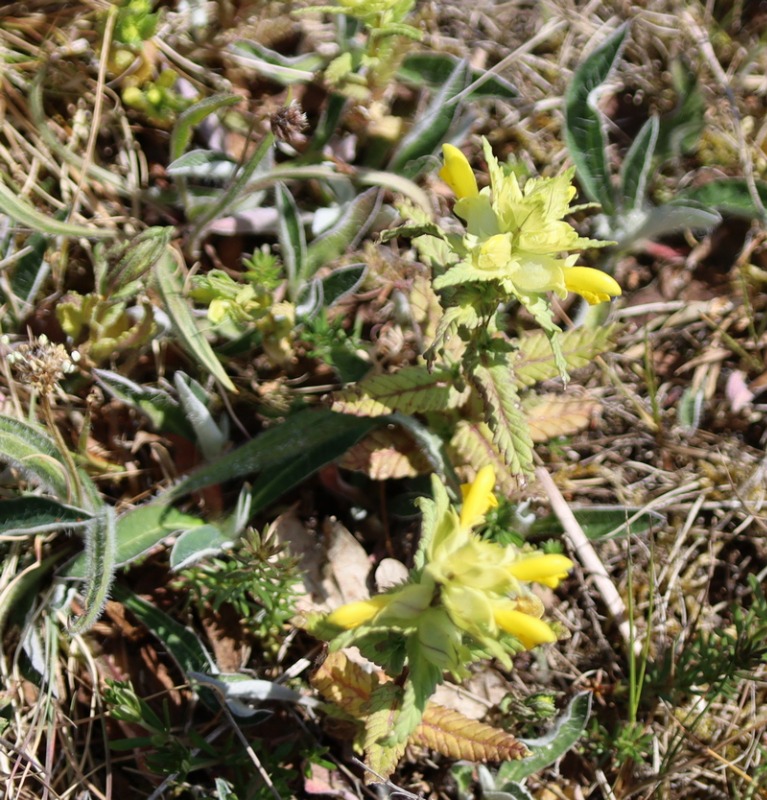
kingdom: Plantae
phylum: Tracheophyta
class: Magnoliopsida
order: Lamiales
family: Orobanchaceae
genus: Rhinanthus
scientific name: Rhinanthus
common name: Stor skjaller
